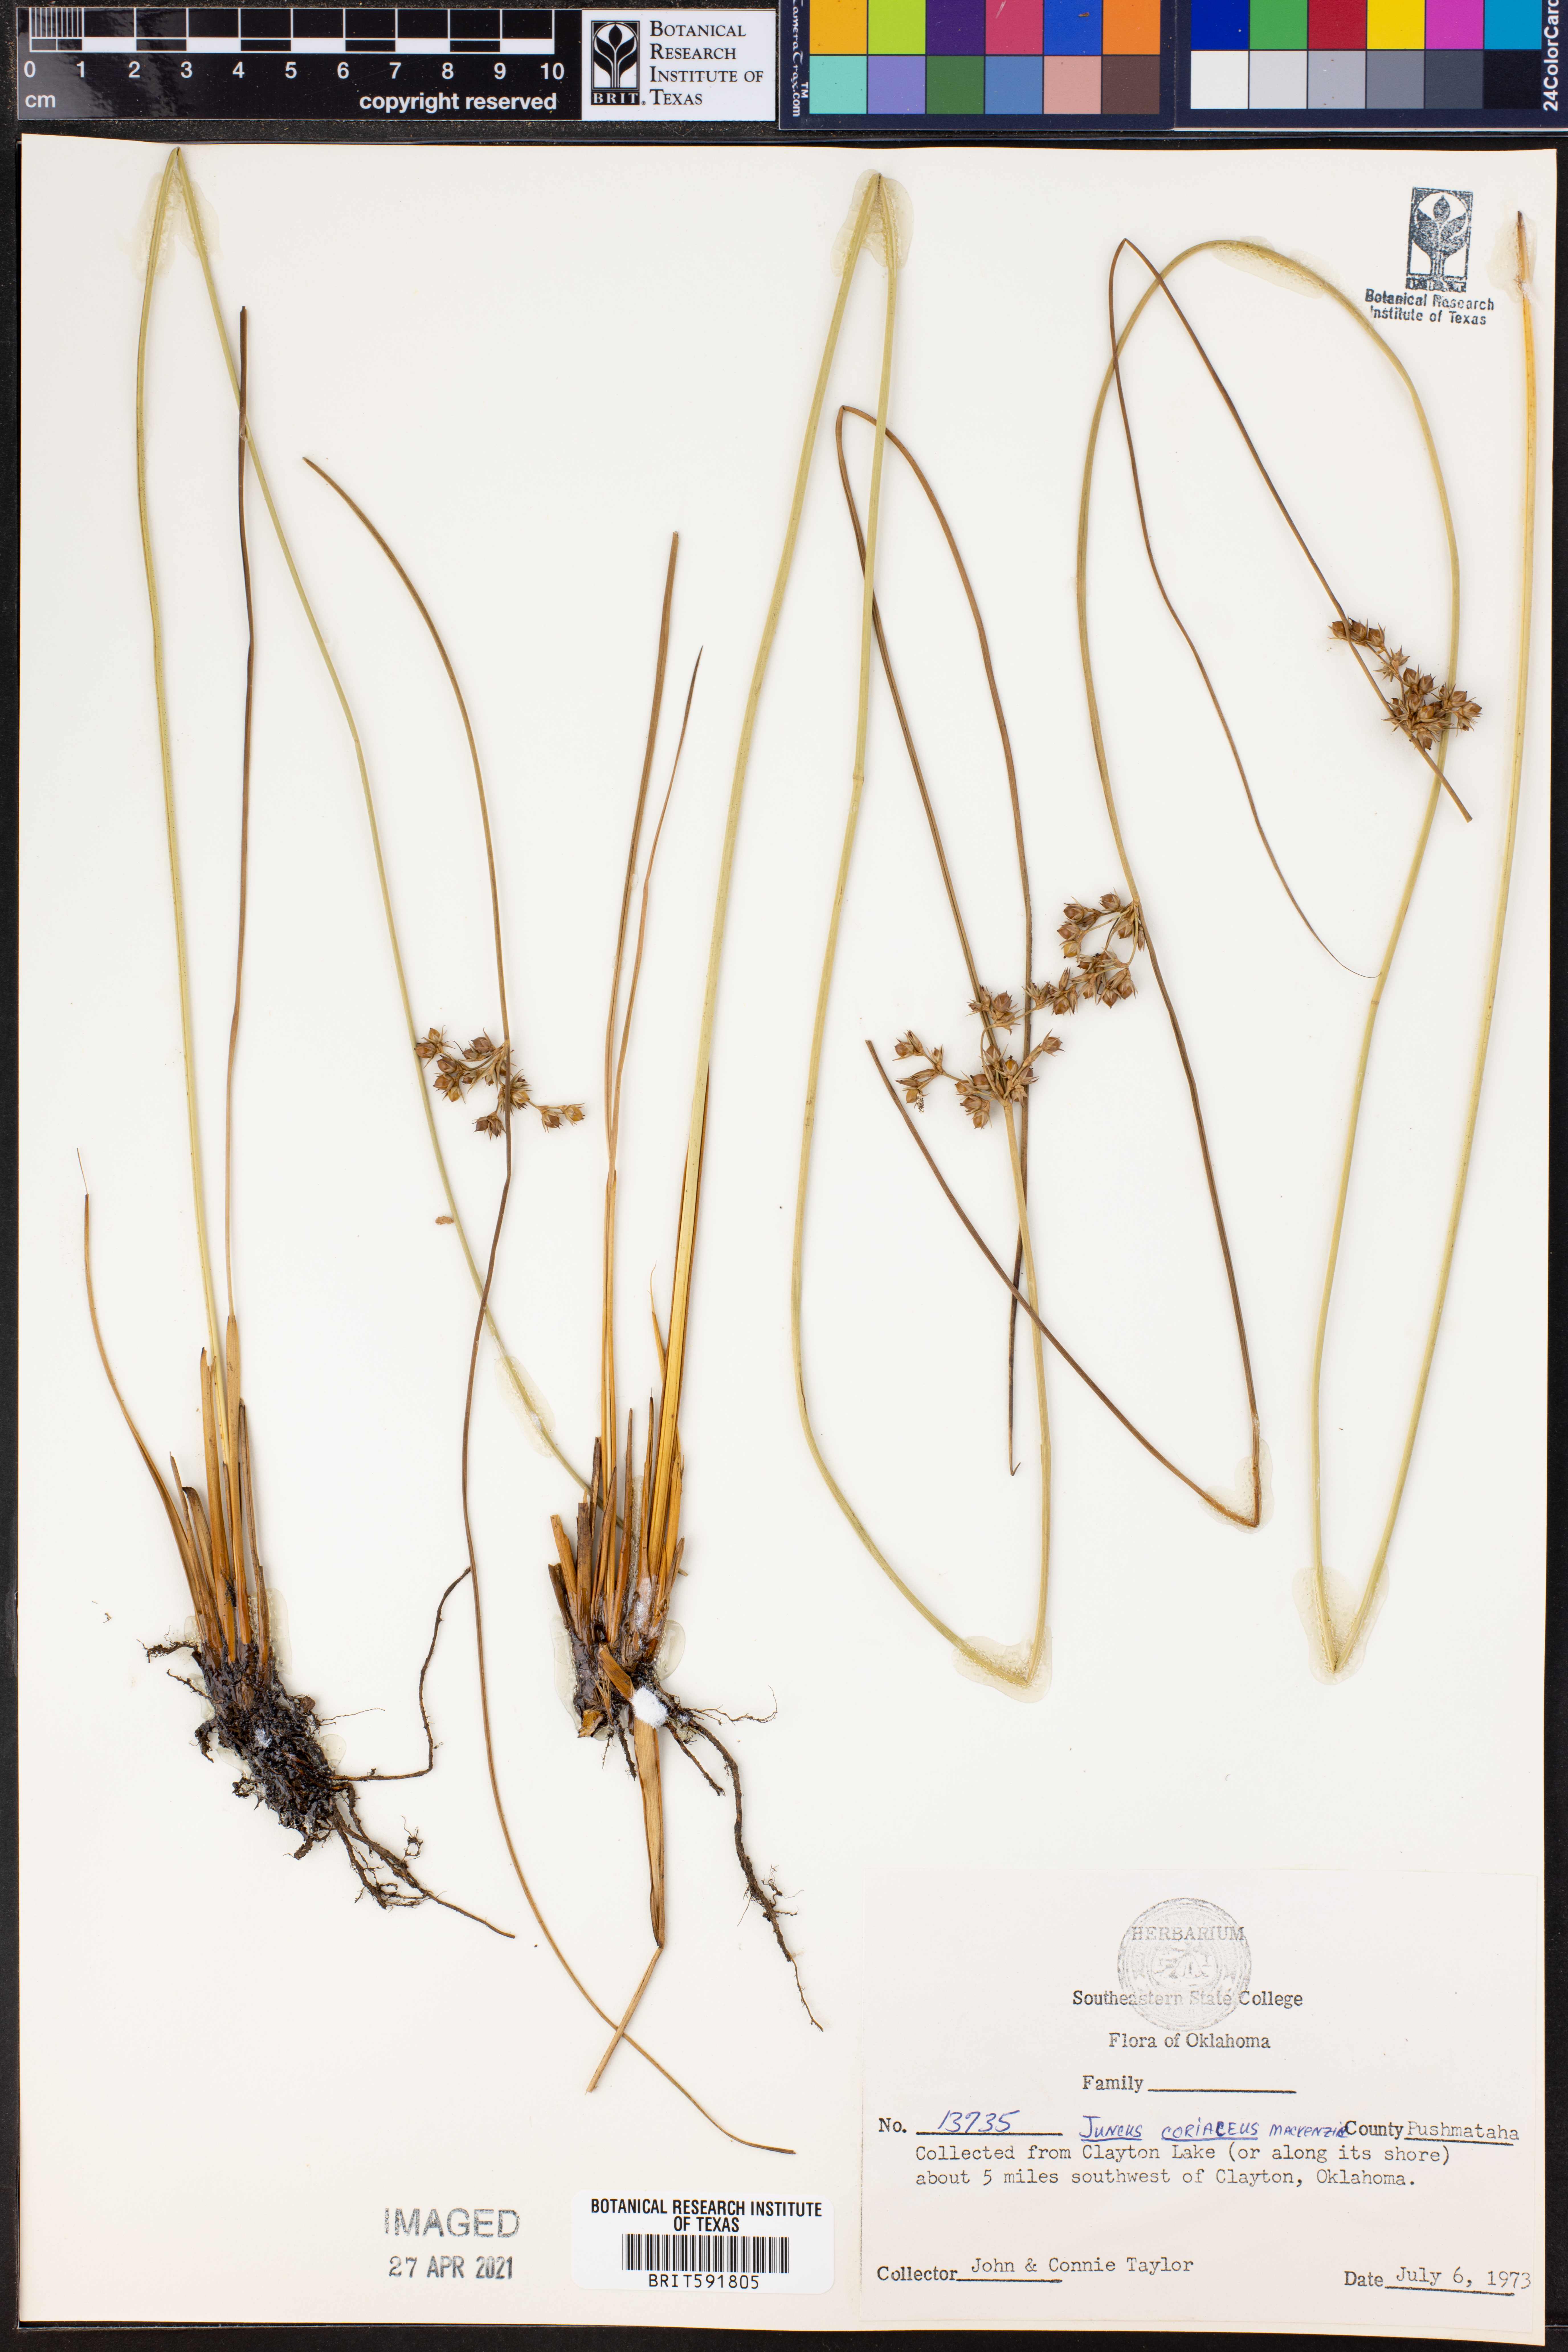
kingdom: Plantae
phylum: Tracheophyta
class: Liliopsida
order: Poales
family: Juncaceae
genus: Juncus
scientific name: Juncus coriaceus
